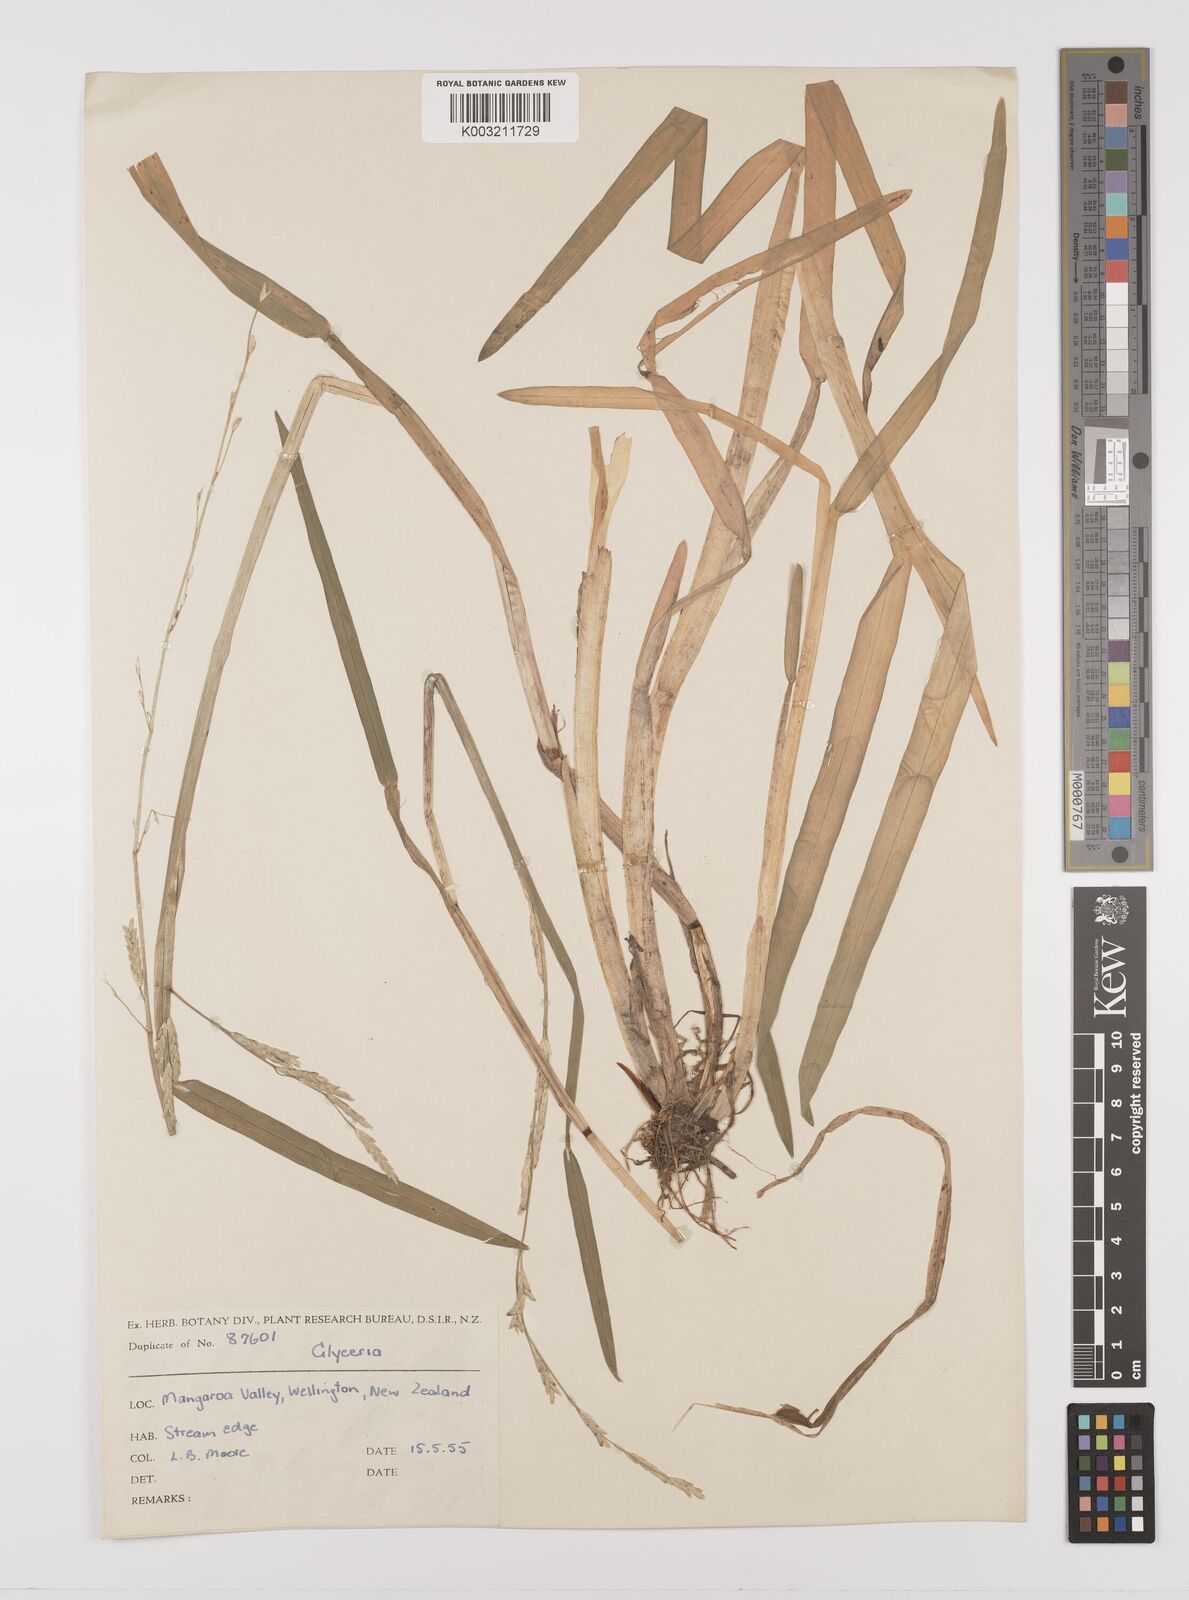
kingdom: Plantae
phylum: Tracheophyta
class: Liliopsida
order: Poales
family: Poaceae
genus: Glyceria
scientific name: Glyceria
